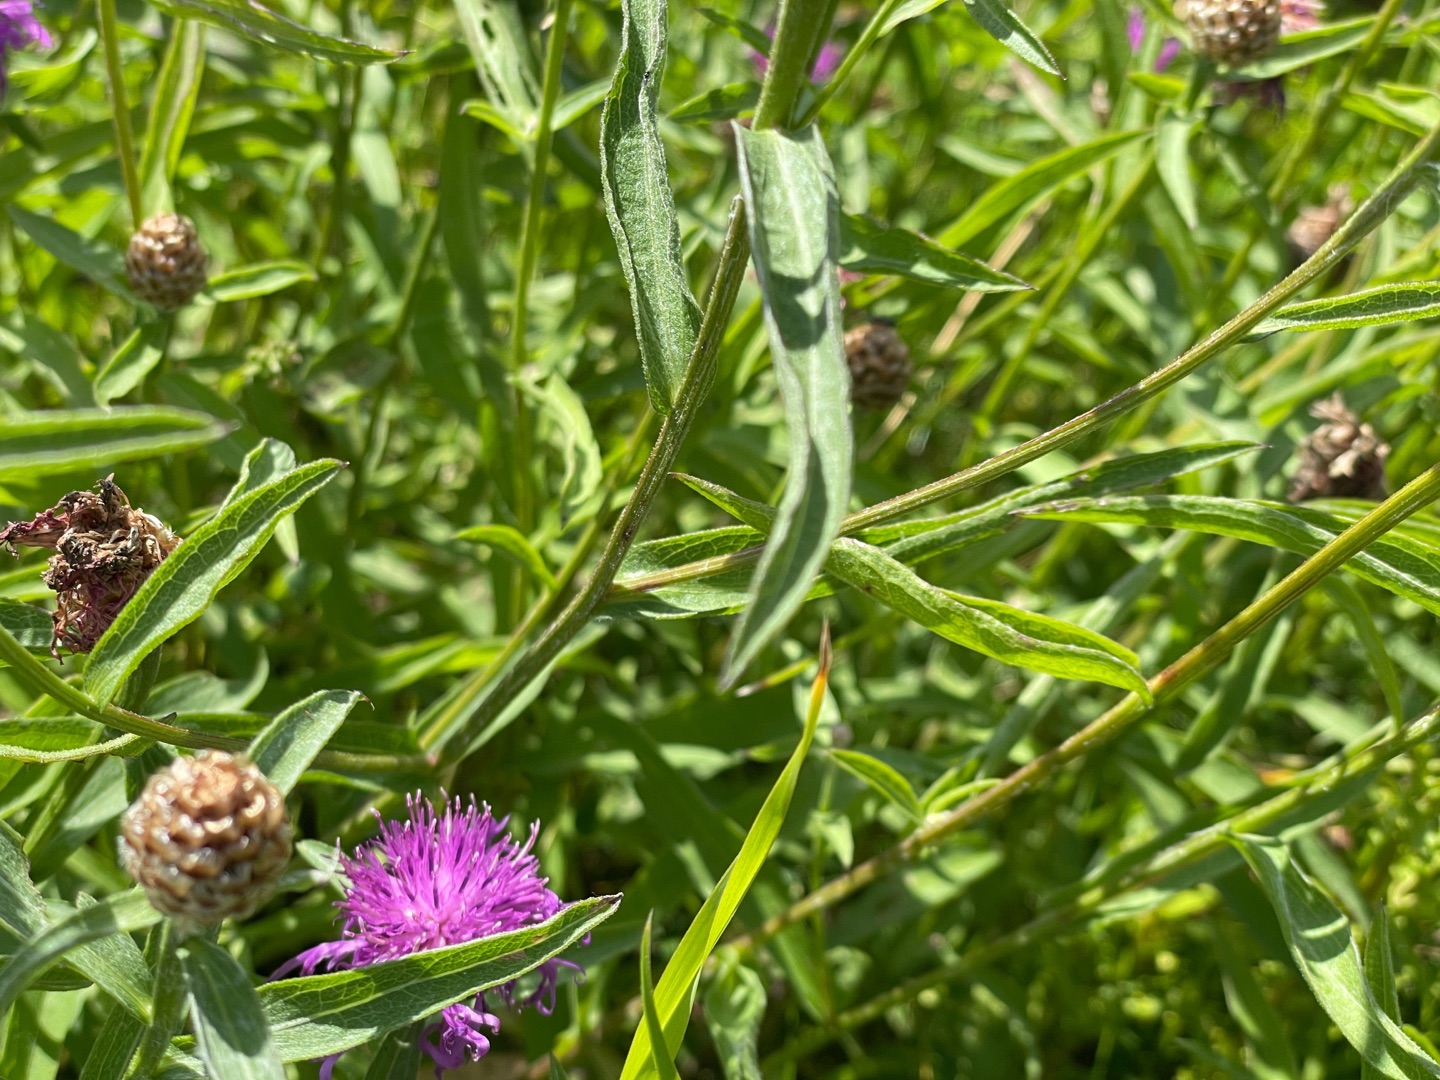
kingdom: Plantae
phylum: Tracheophyta
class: Magnoliopsida
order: Asterales
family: Asteraceae
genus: Centaurea
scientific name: Centaurea jacea
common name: Almindelig knopurt
